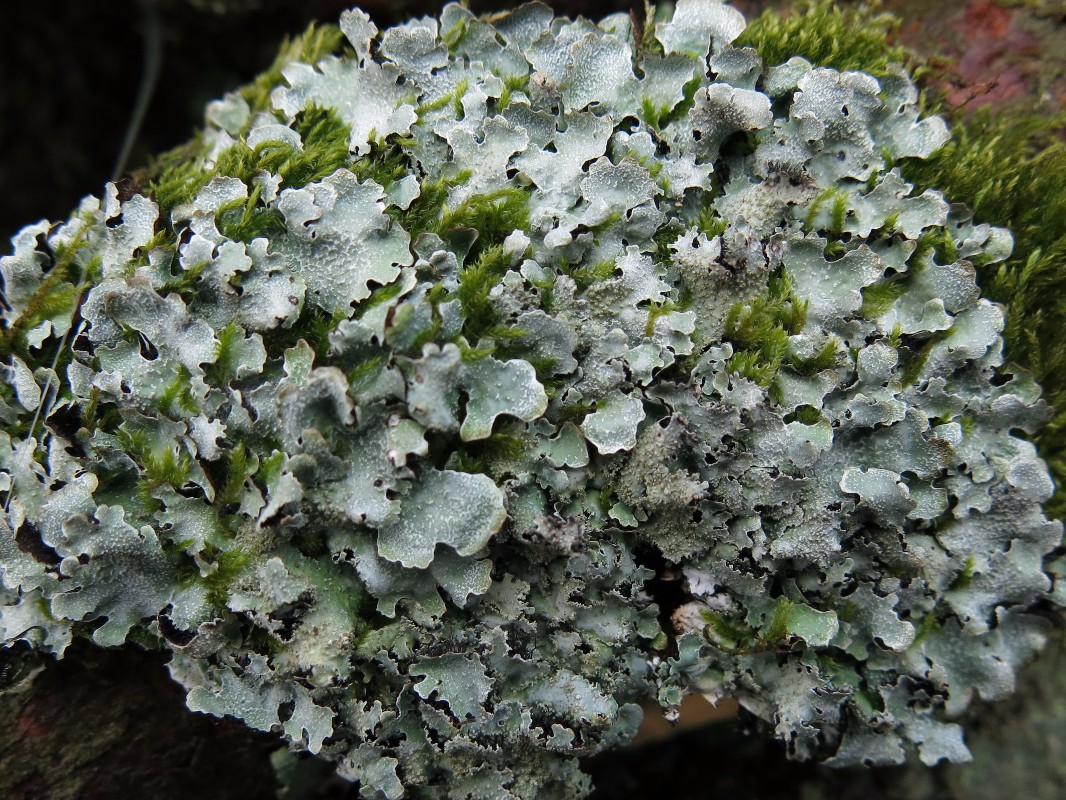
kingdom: Fungi
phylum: Ascomycota
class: Lecanoromycetes
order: Lecanorales
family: Parmeliaceae
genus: Parmelia
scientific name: Parmelia ernstiae
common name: rimstift-skållav
